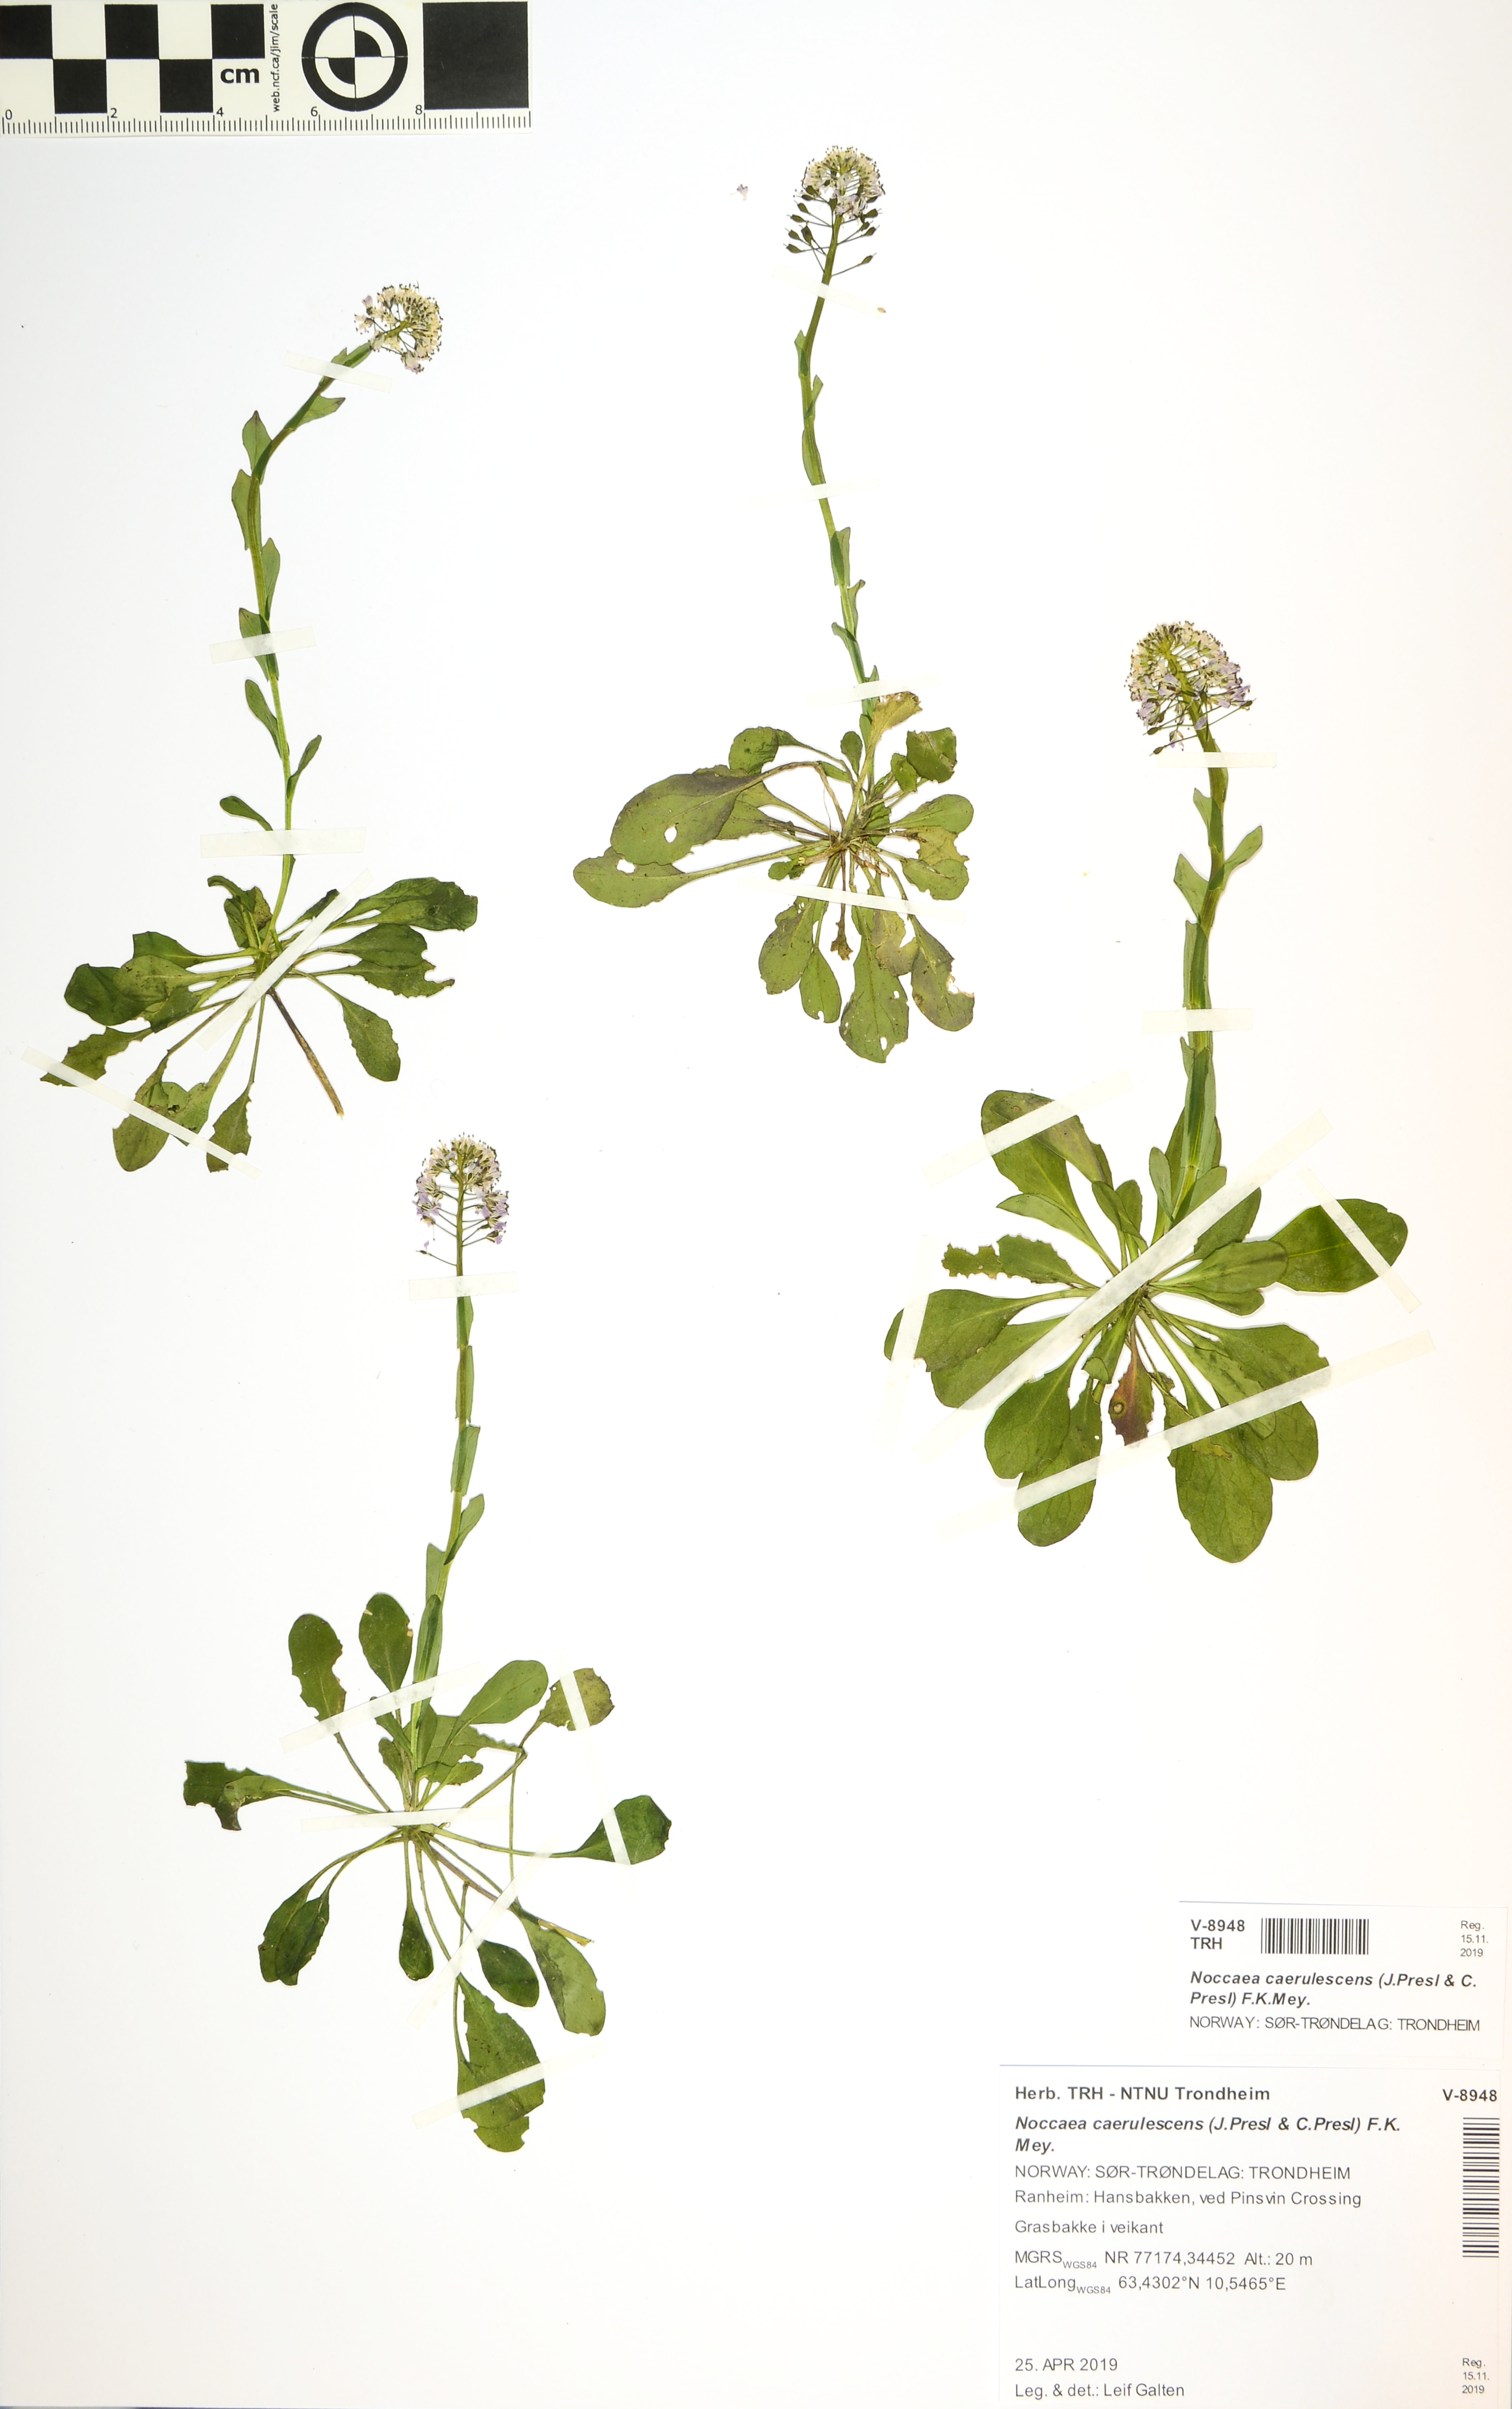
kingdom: Plantae
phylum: Tracheophyta
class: Magnoliopsida
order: Brassicales
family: Brassicaceae
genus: Noccaea
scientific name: Noccaea caerulescens
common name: Alpine pennycress
